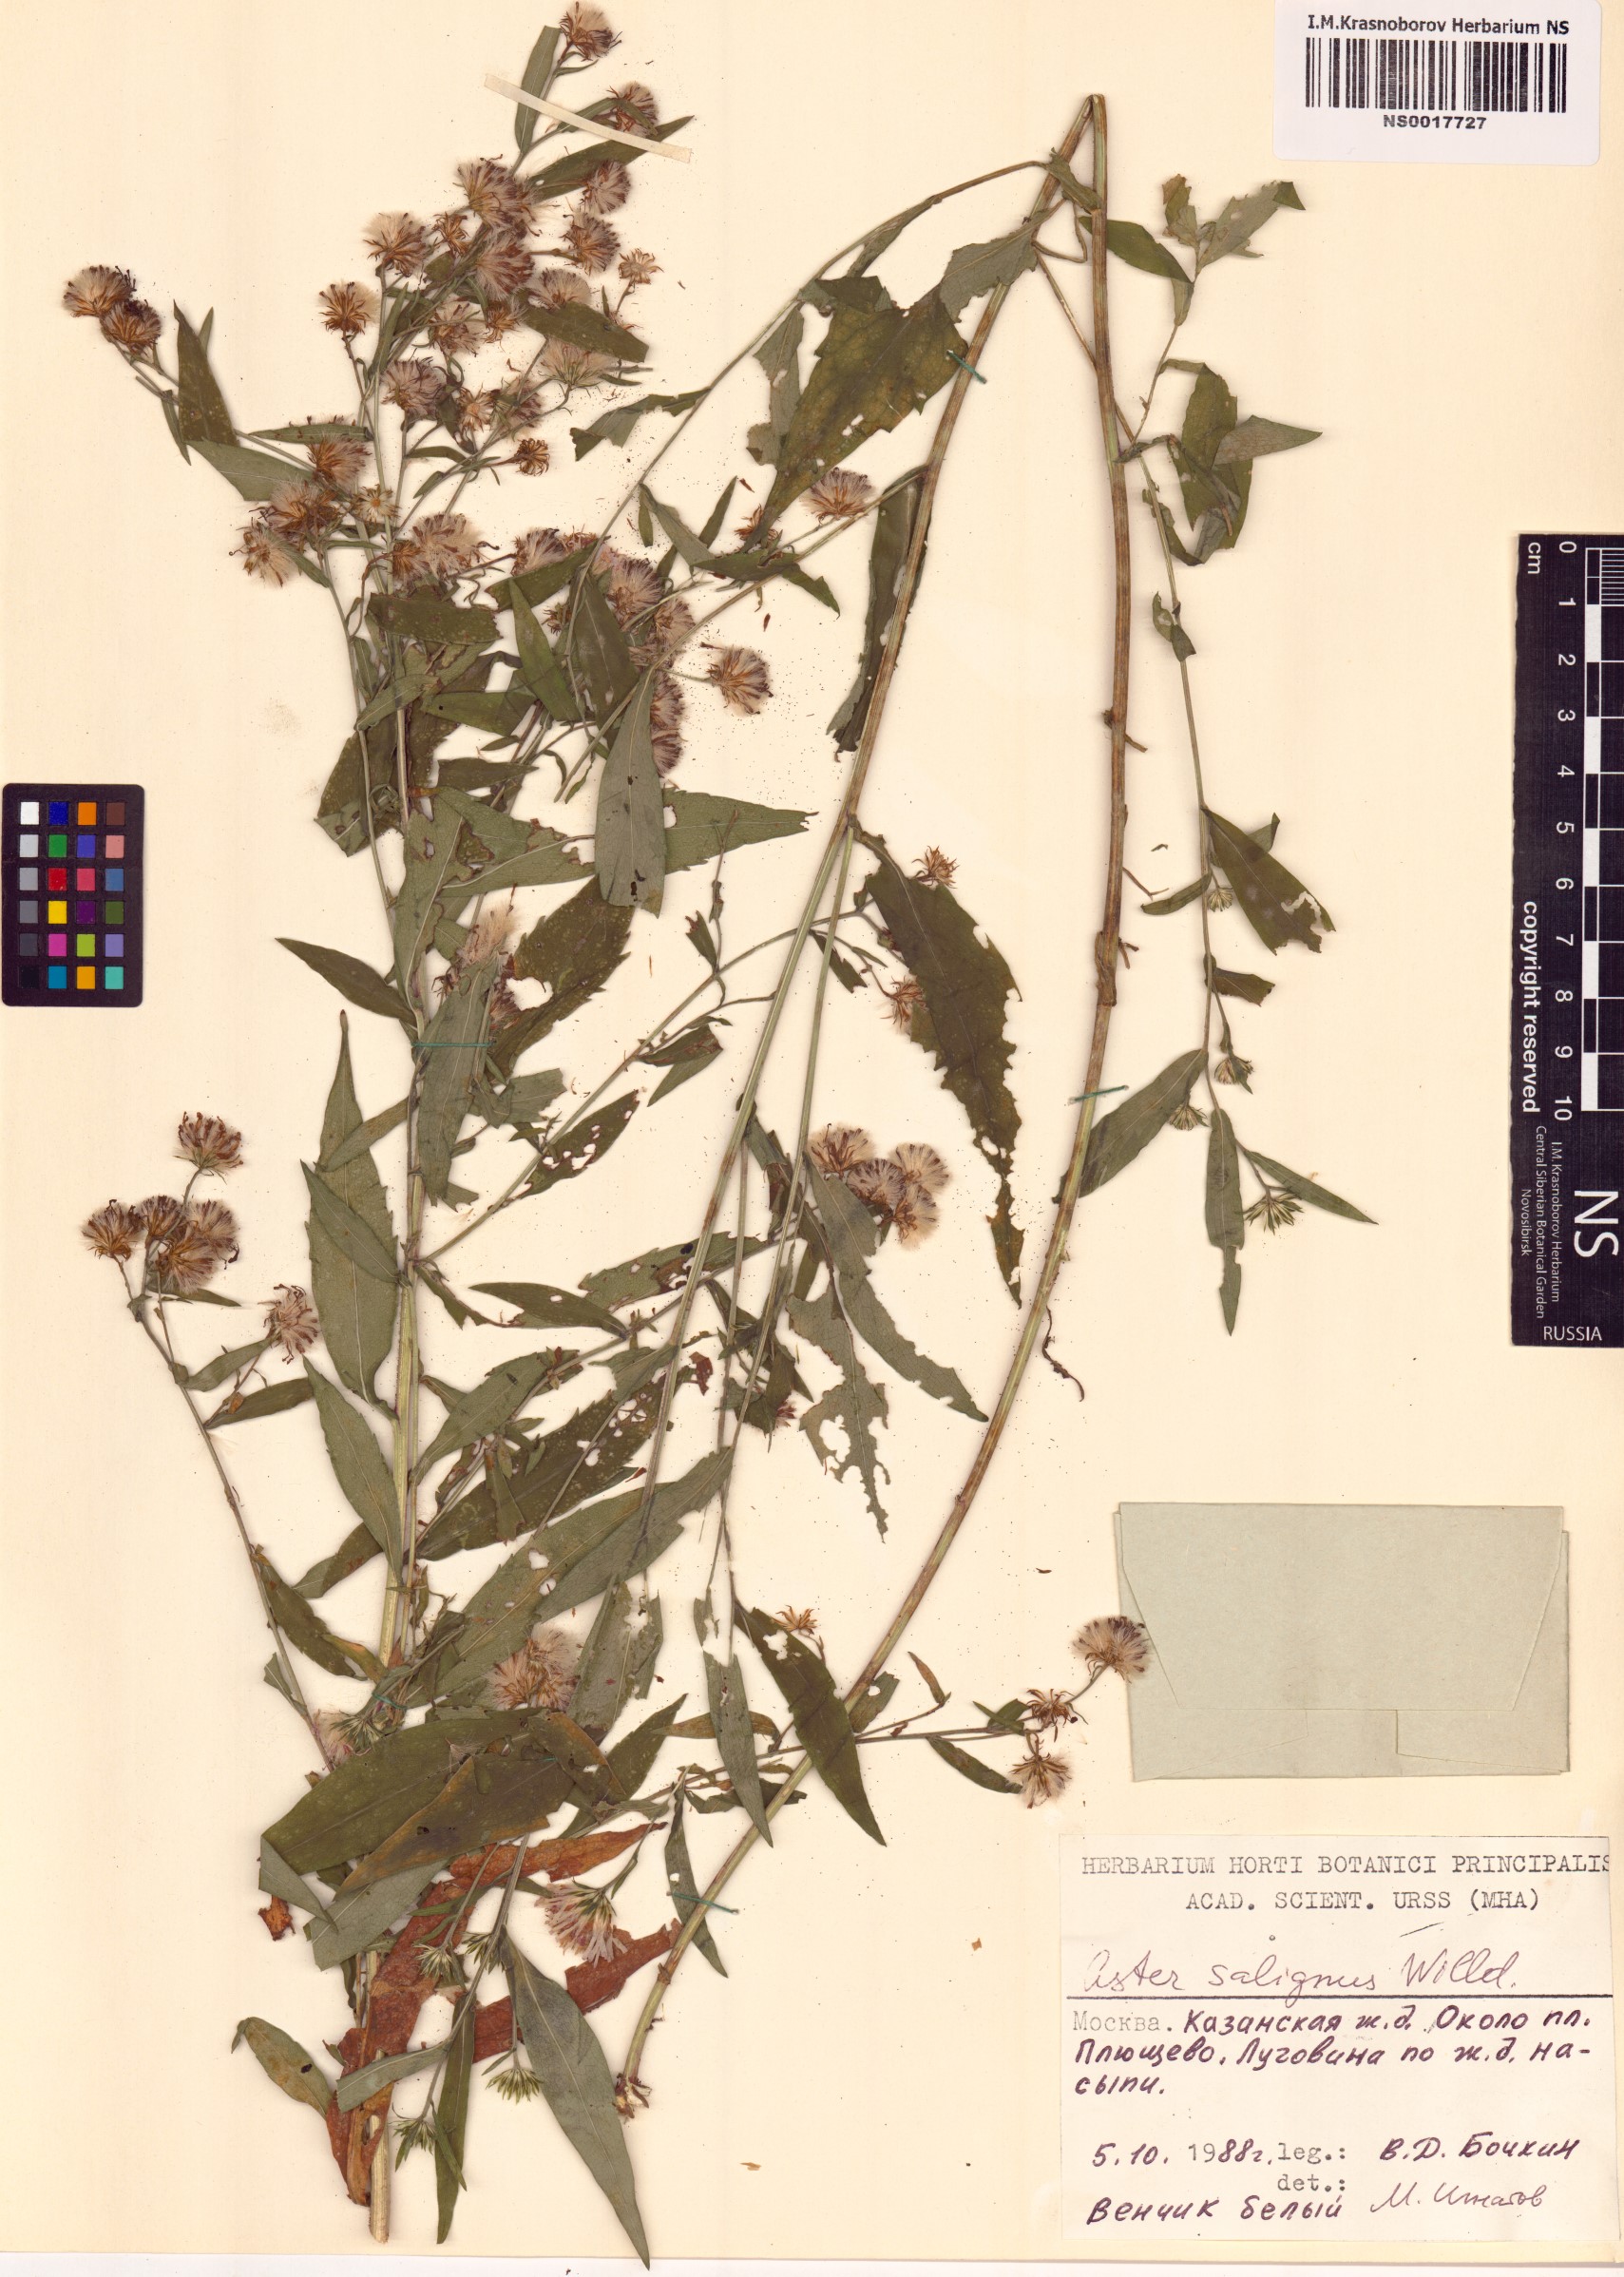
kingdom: Plantae
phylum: Tracheophyta
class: Magnoliopsida
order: Asterales
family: Asteraceae
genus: Symphyotrichum
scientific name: Symphyotrichum salignum
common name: Common michaelmas daisy
